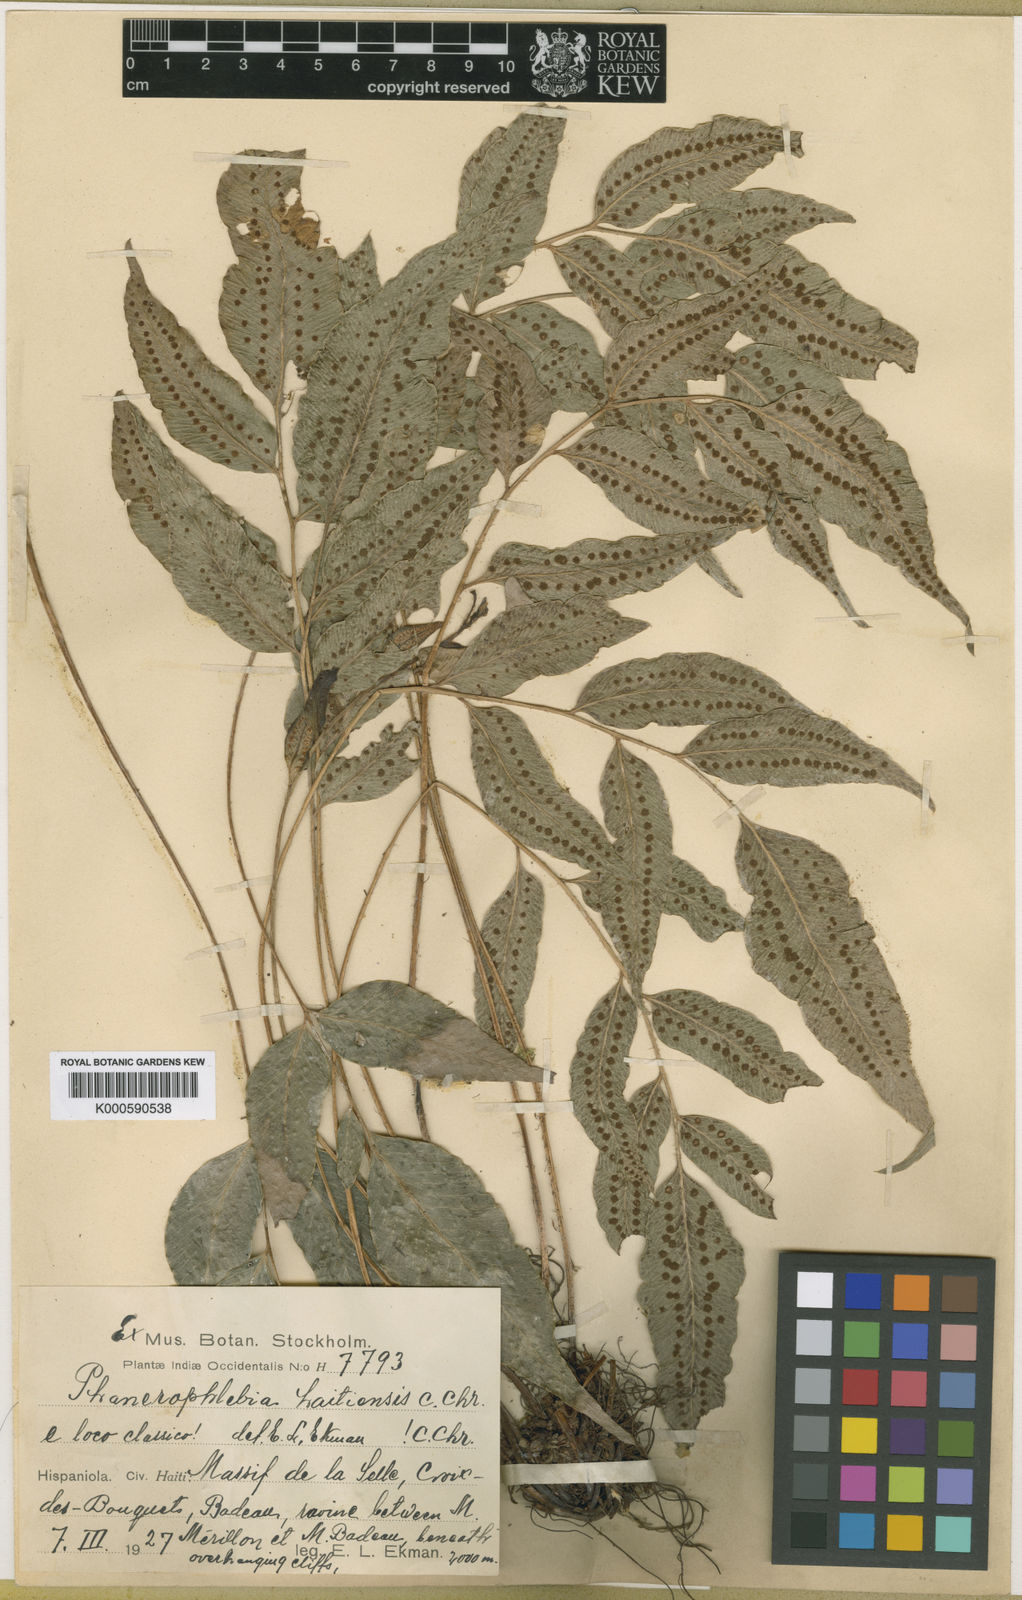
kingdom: Plantae
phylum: Tracheophyta
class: Polypodiopsida
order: Polypodiales
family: Dryopteridaceae
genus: Phanerophlebia
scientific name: Phanerophlebia haitiensis
